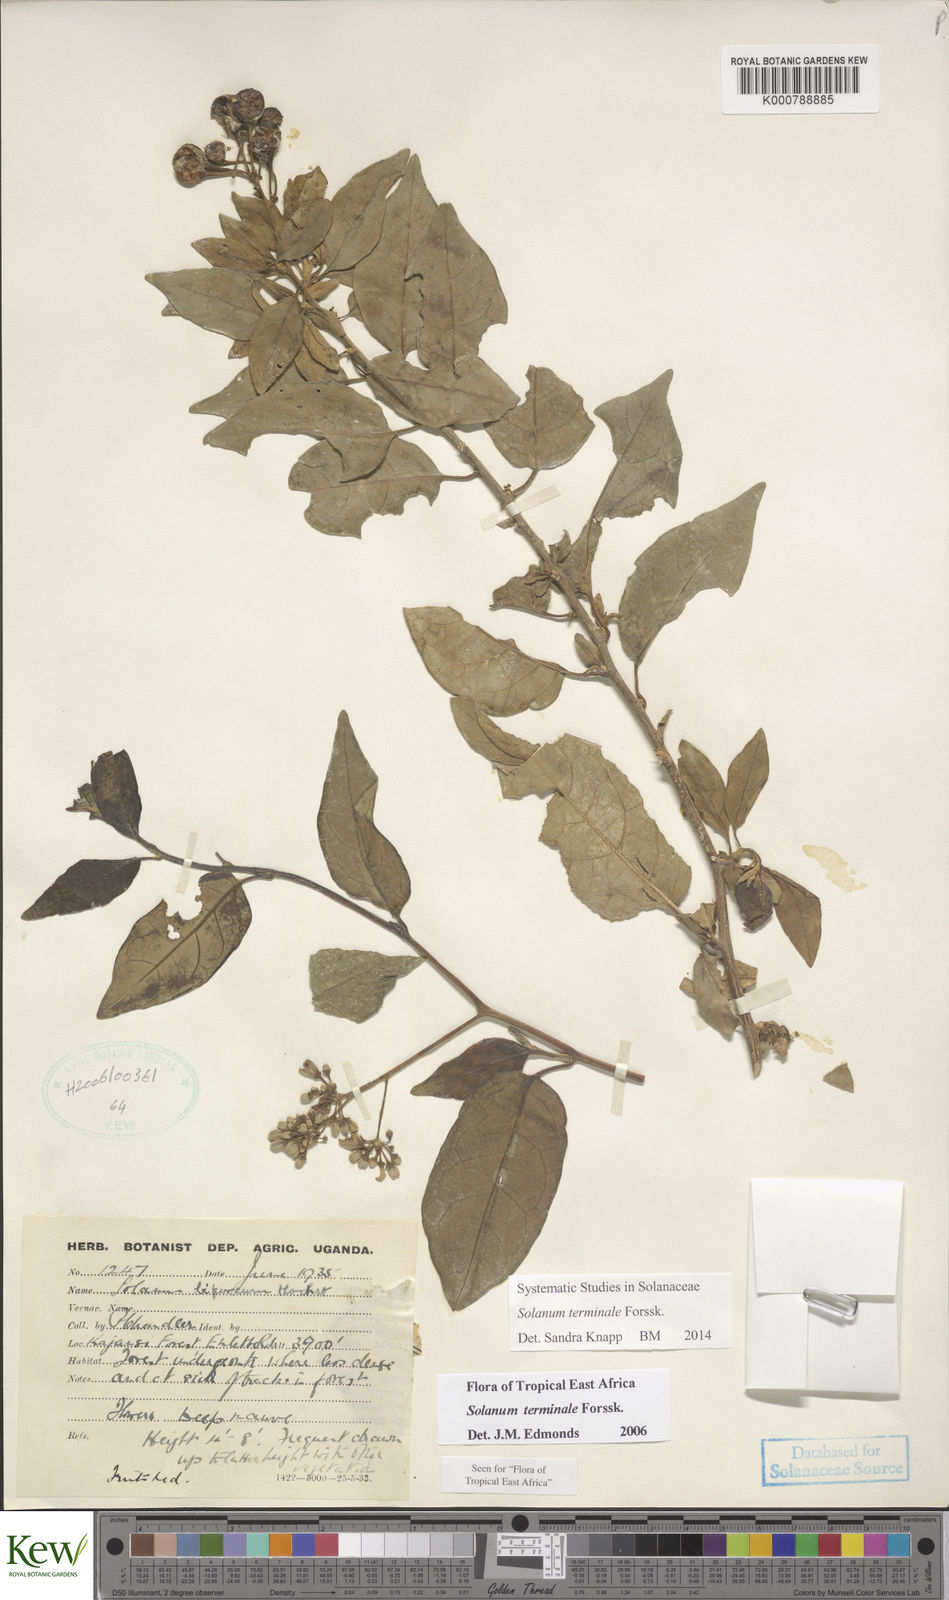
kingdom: Plantae
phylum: Tracheophyta
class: Magnoliopsida
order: Solanales
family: Solanaceae
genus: Solanum
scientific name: Solanum terminale
